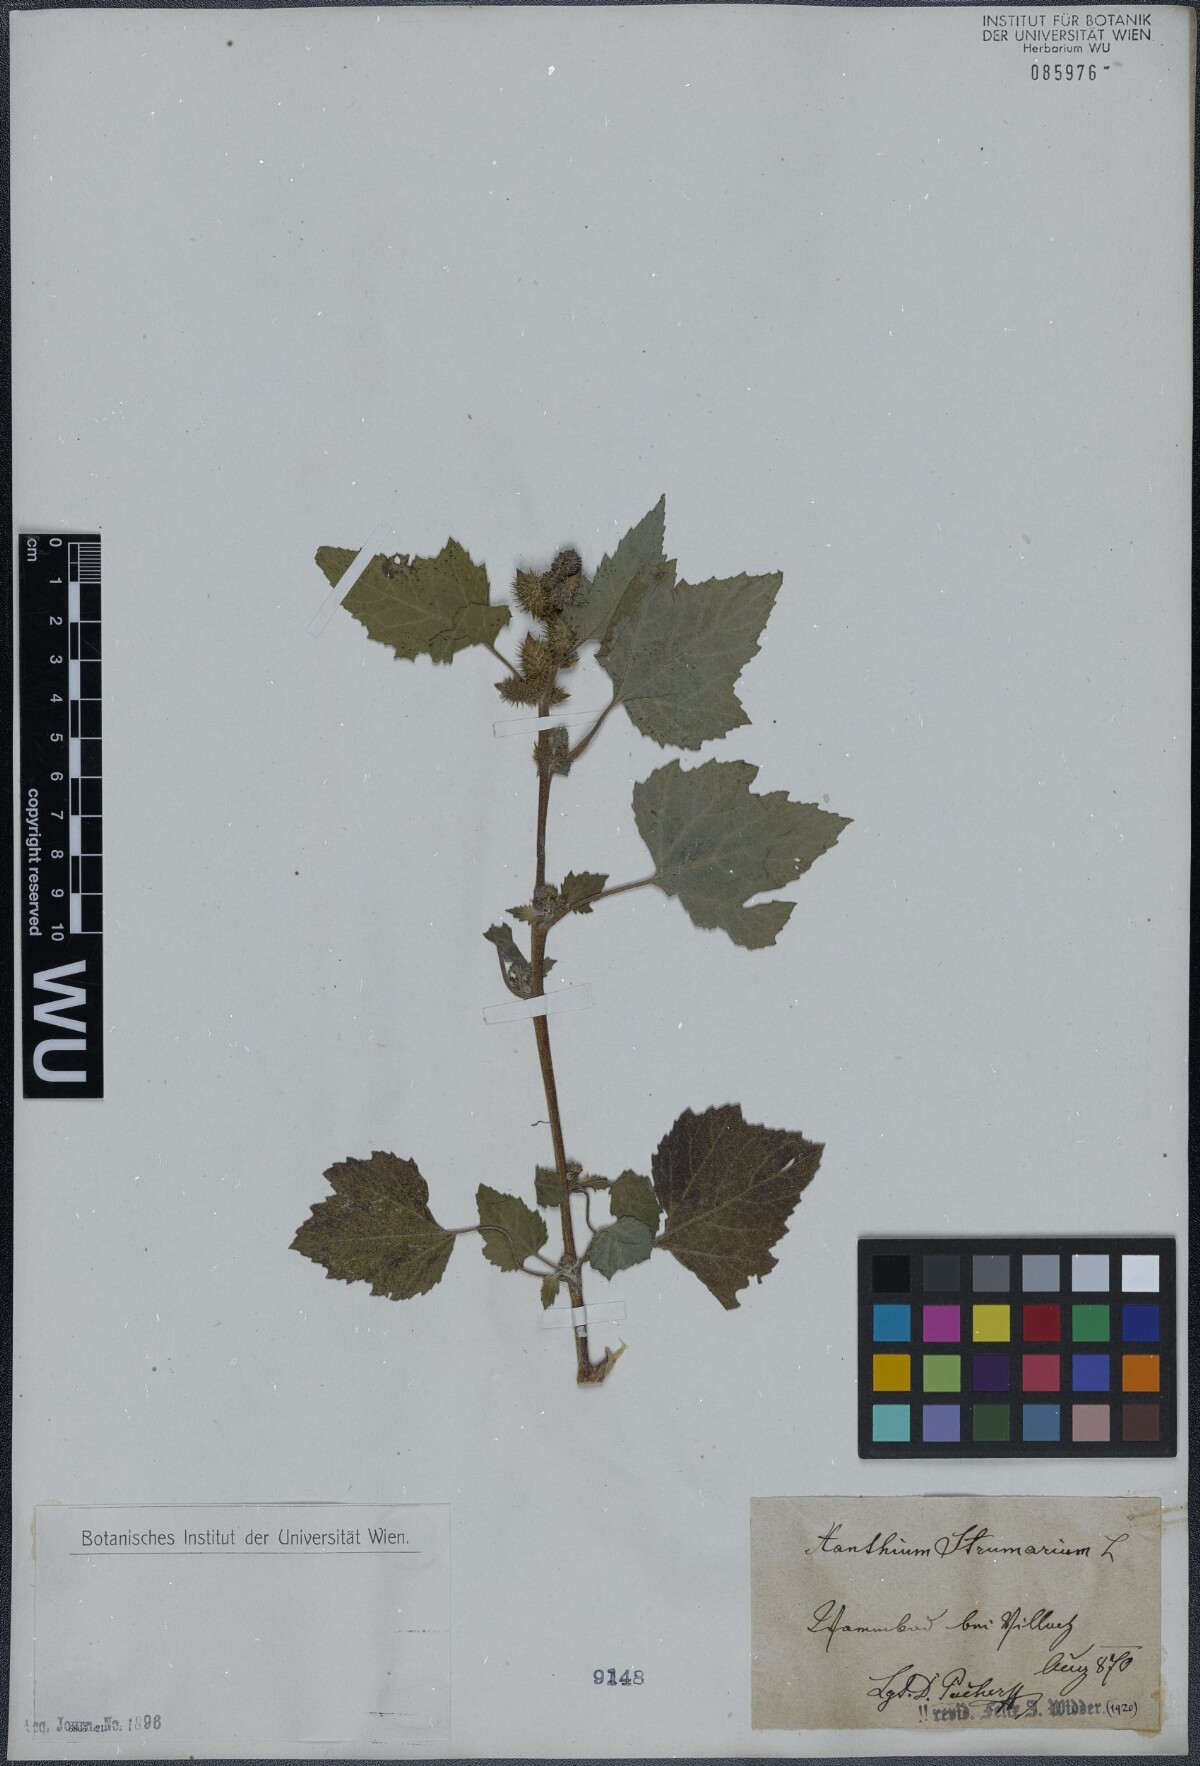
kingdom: Plantae
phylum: Tracheophyta
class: Magnoliopsida
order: Asterales
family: Asteraceae
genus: Xanthium
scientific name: Xanthium strumarium
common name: Rough cocklebur
